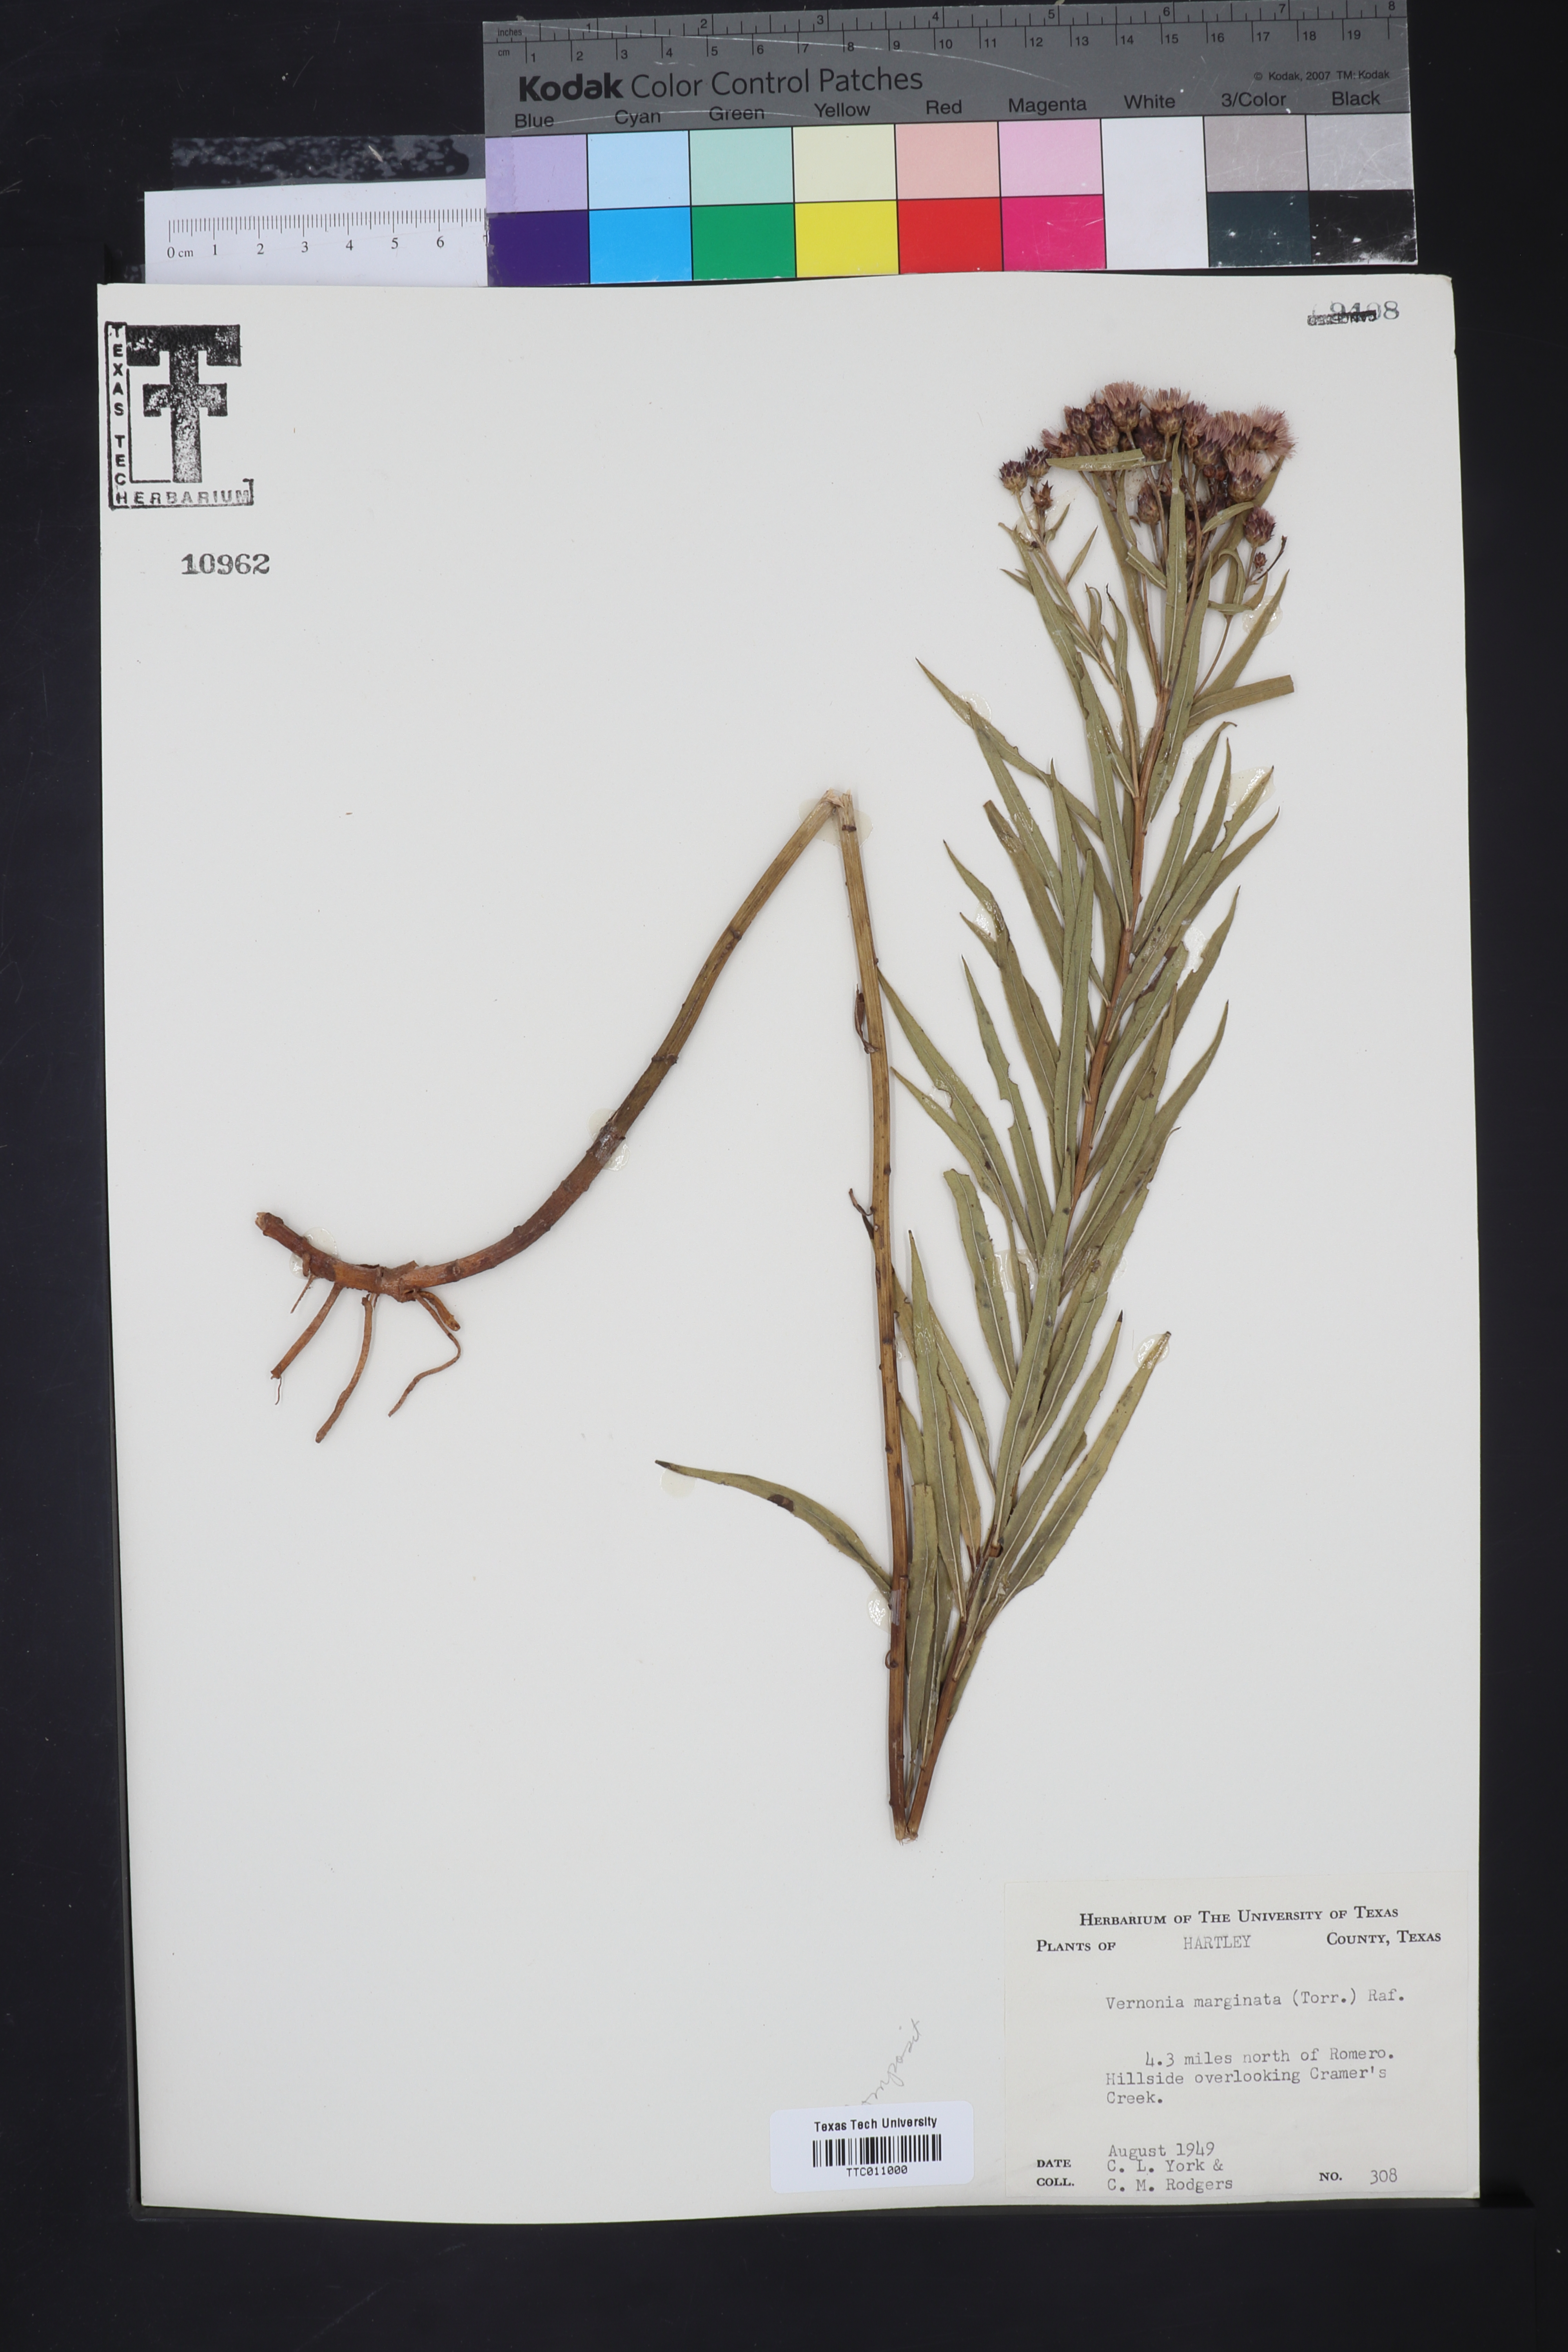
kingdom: Plantae
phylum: Tracheophyta
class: Magnoliopsida
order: Asterales
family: Asteraceae
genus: Vernonia
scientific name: Vernonia marginata
